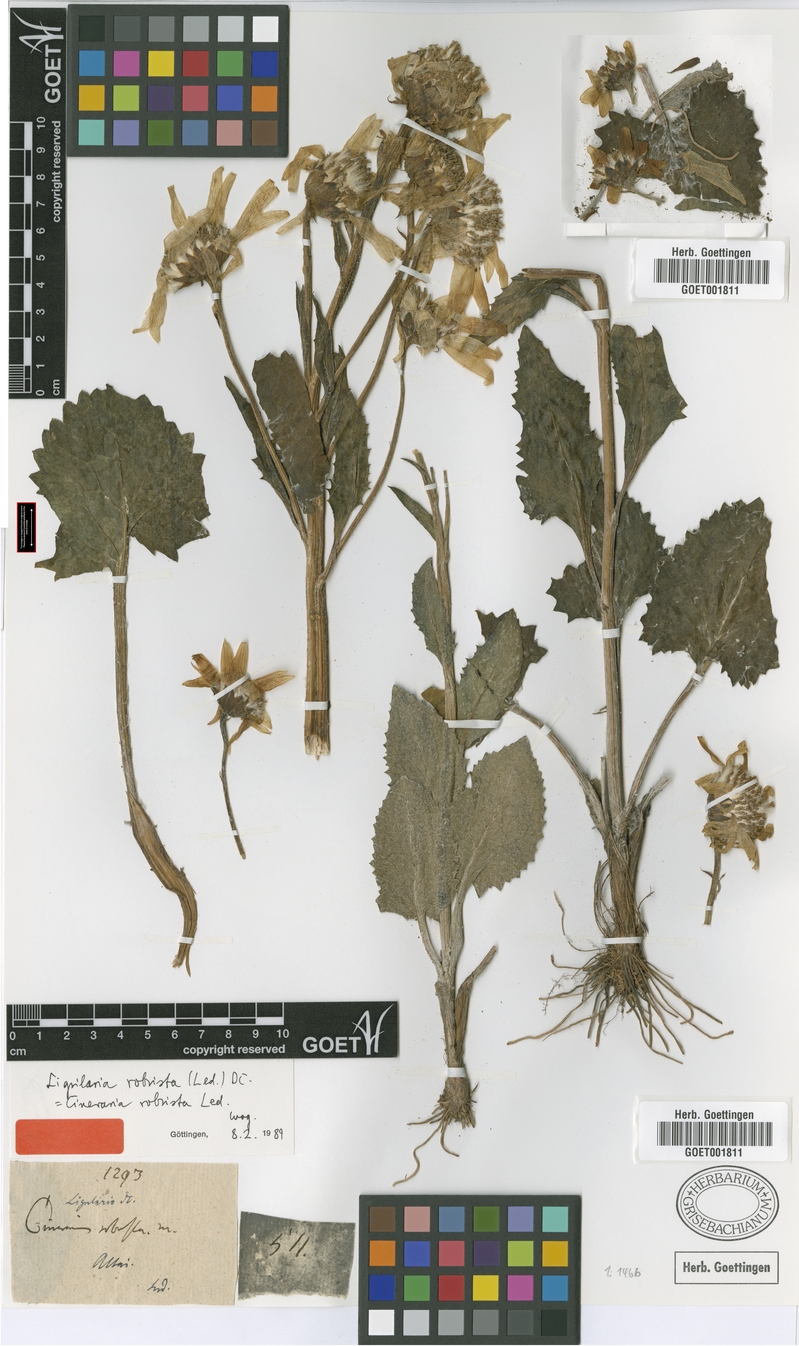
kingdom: Plantae
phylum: Tracheophyta
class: Magnoliopsida
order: Asterales
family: Asteraceae
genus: Vickifunkia
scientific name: Vickifunkia robusta
